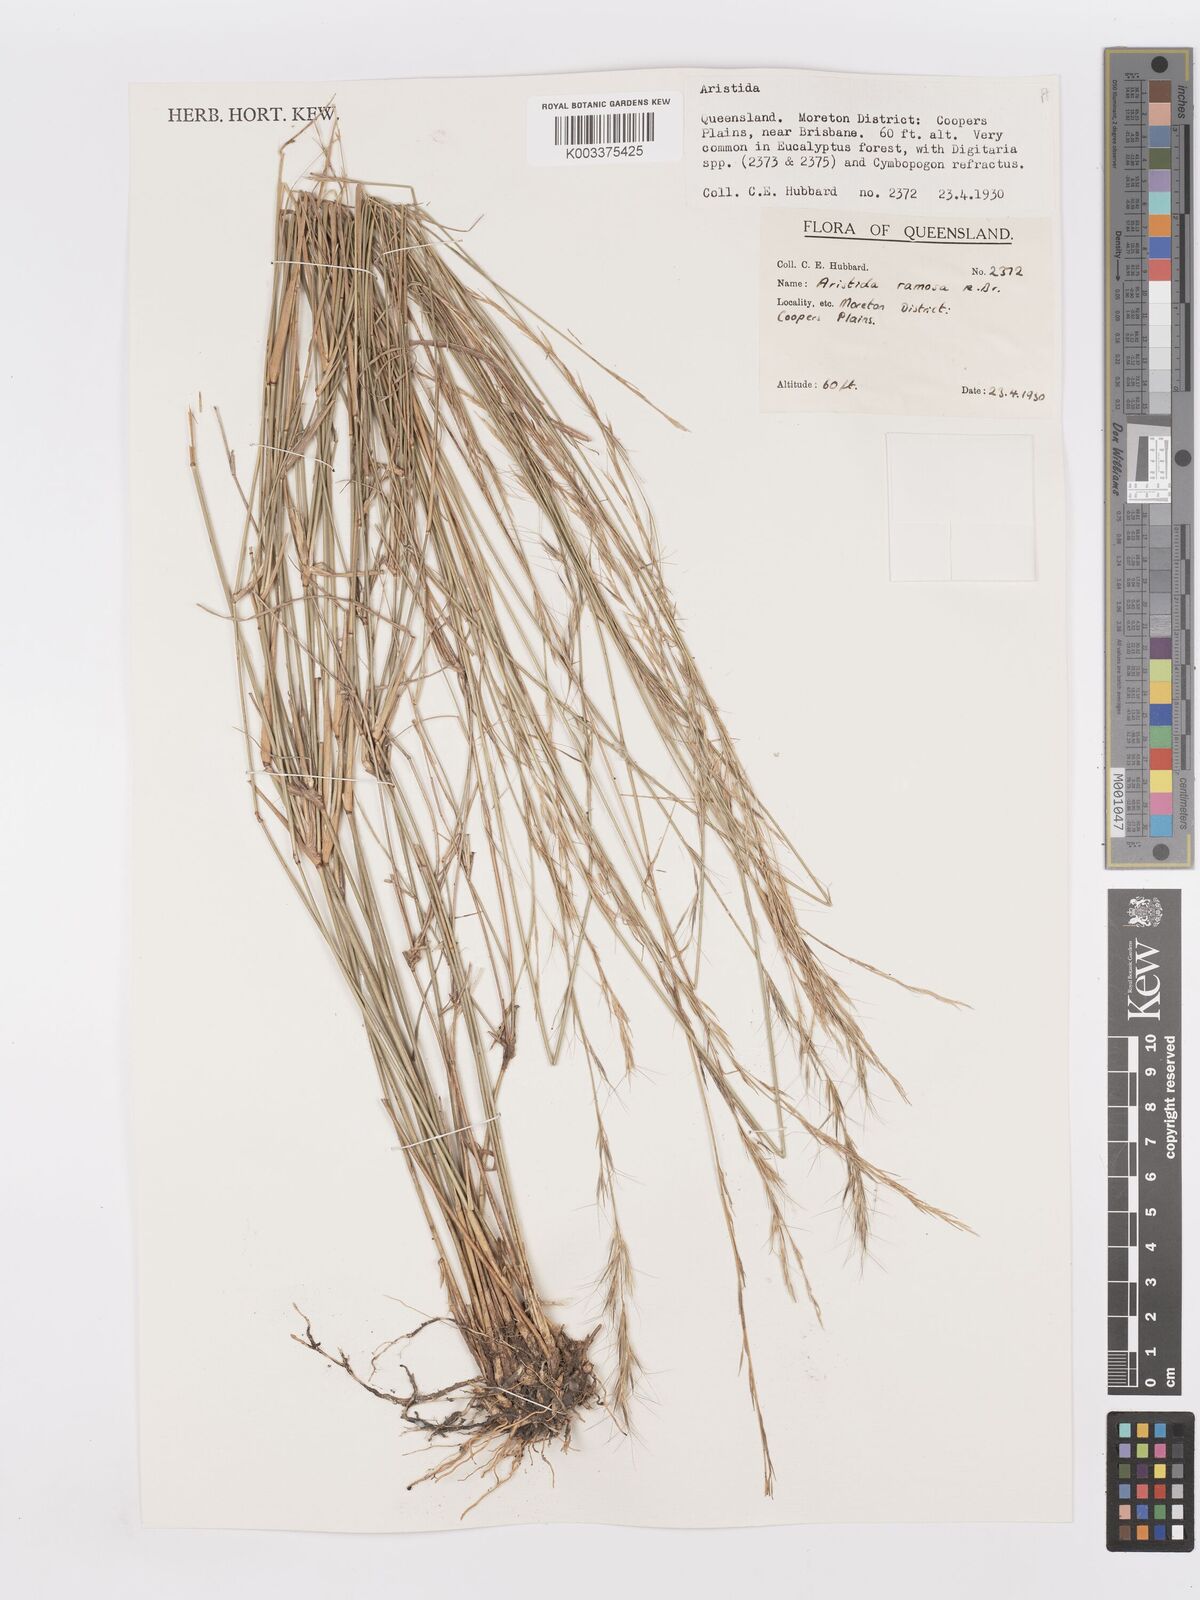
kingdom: Plantae
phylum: Tracheophyta
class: Liliopsida
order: Poales
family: Poaceae
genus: Aristida
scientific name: Aristida ramosa
